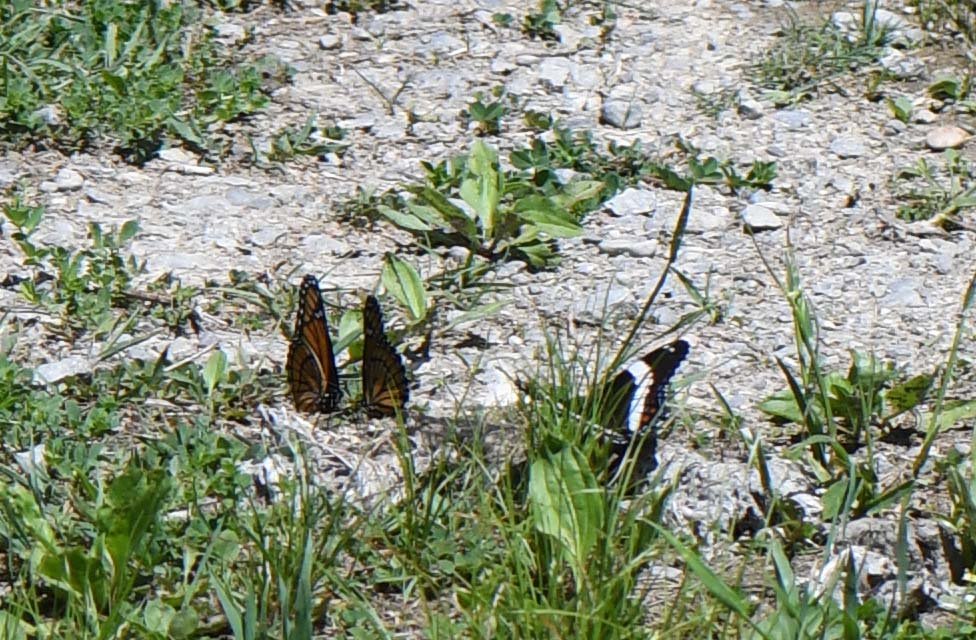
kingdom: Animalia
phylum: Arthropoda
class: Insecta
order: Lepidoptera
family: Nymphalidae
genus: Limenitis
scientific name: Limenitis archippus
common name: Viceroy
